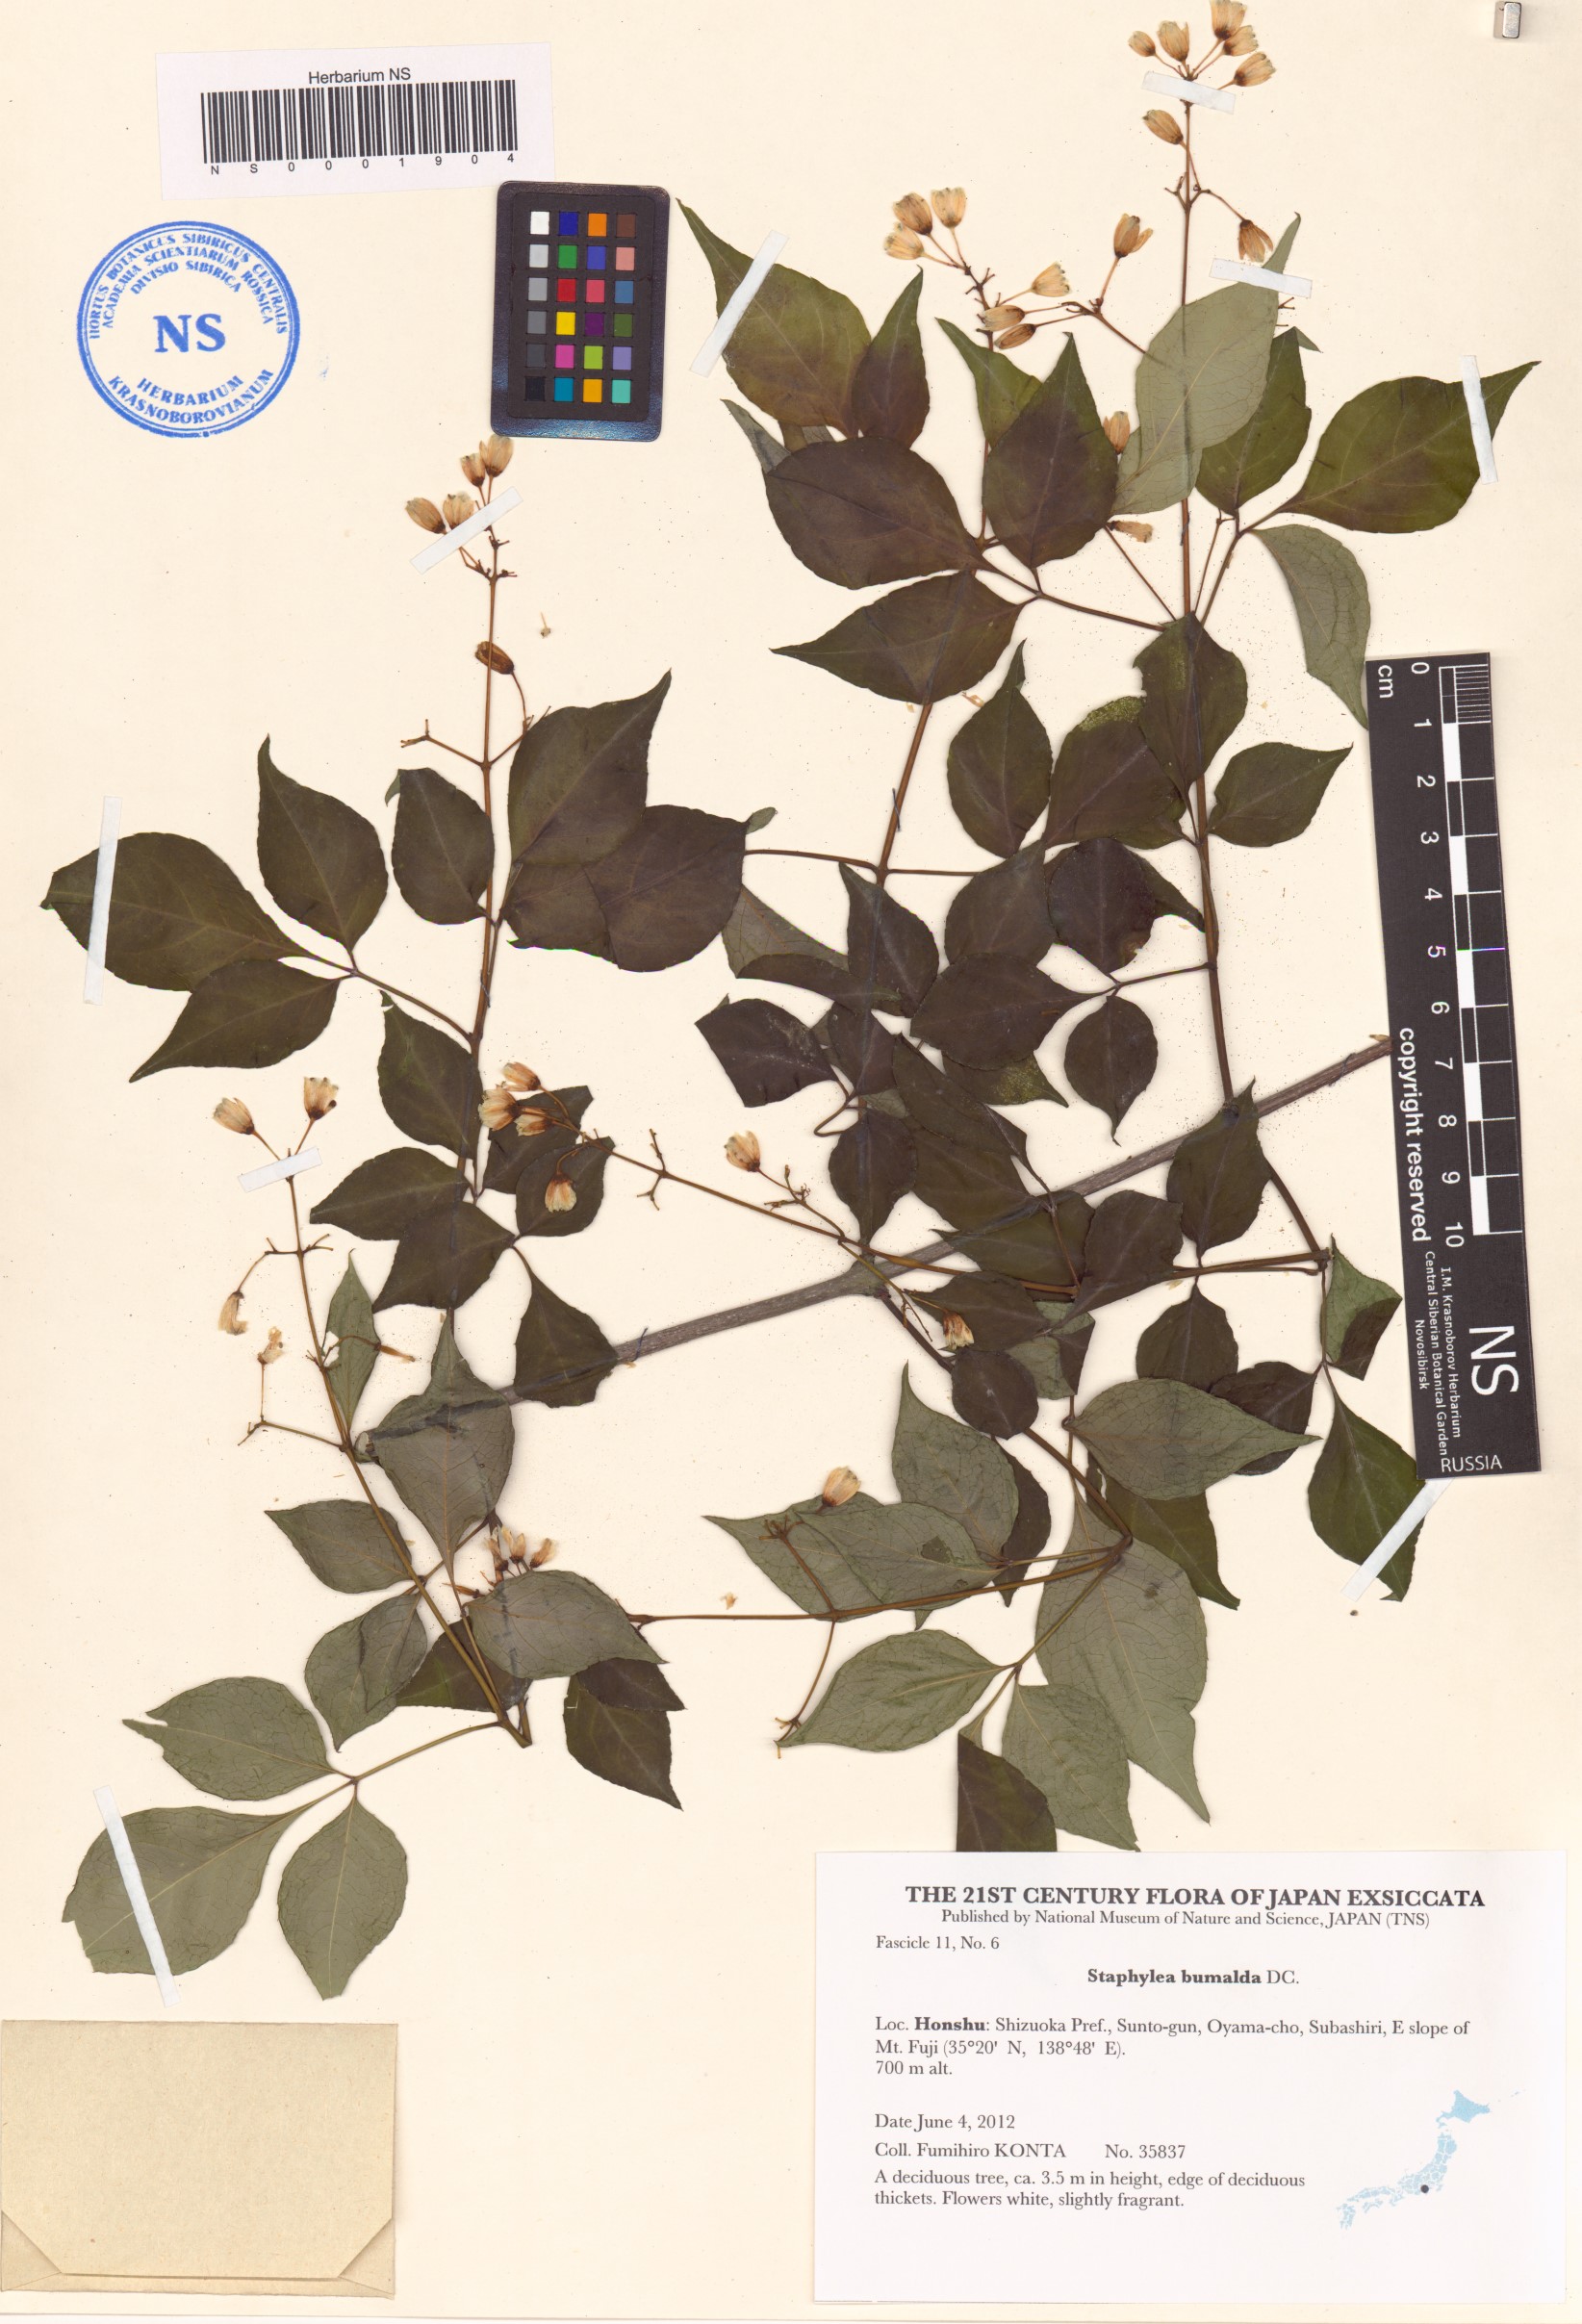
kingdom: Plantae
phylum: Tracheophyta
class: Magnoliopsida
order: Crossosomatales
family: Staphyleaceae
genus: Staphylea
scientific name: Staphylea bumalda
